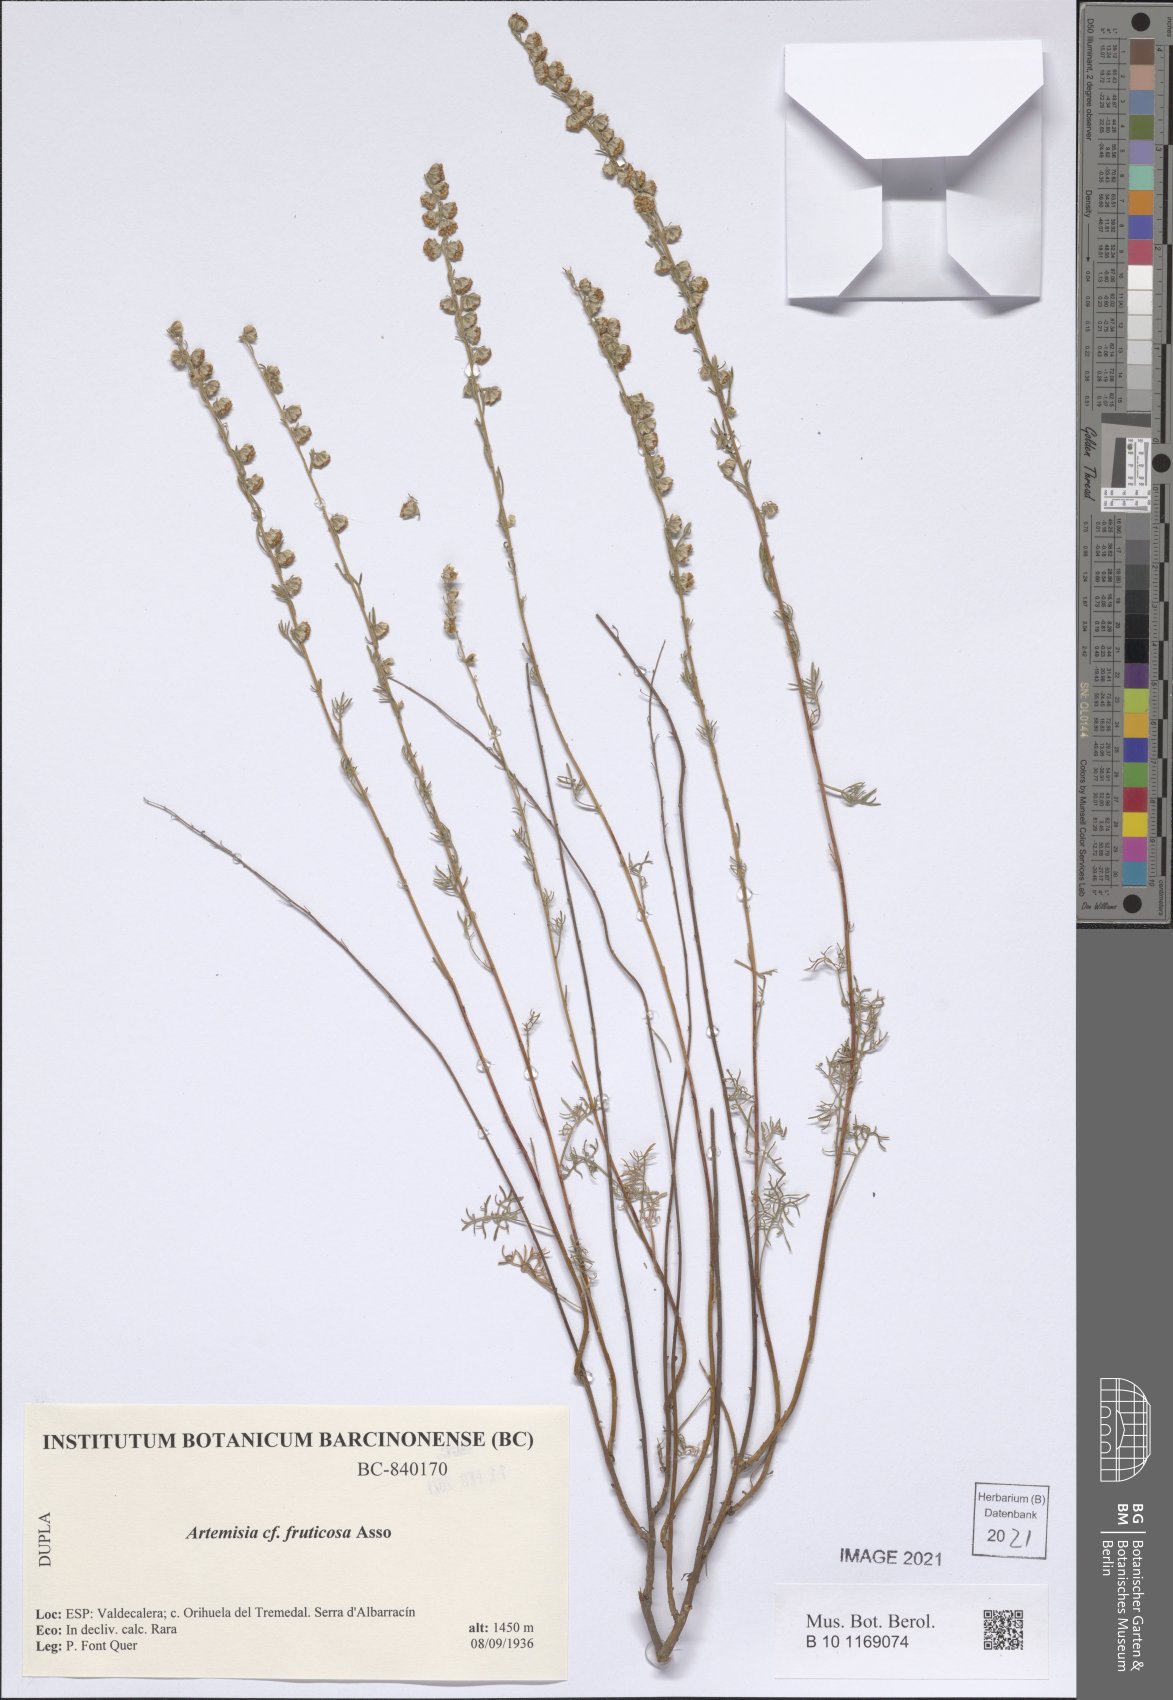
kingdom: Plantae
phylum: Tracheophyta
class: Magnoliopsida
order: Asterales
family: Asteraceae
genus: Artemisia
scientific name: Artemisia arenaria
